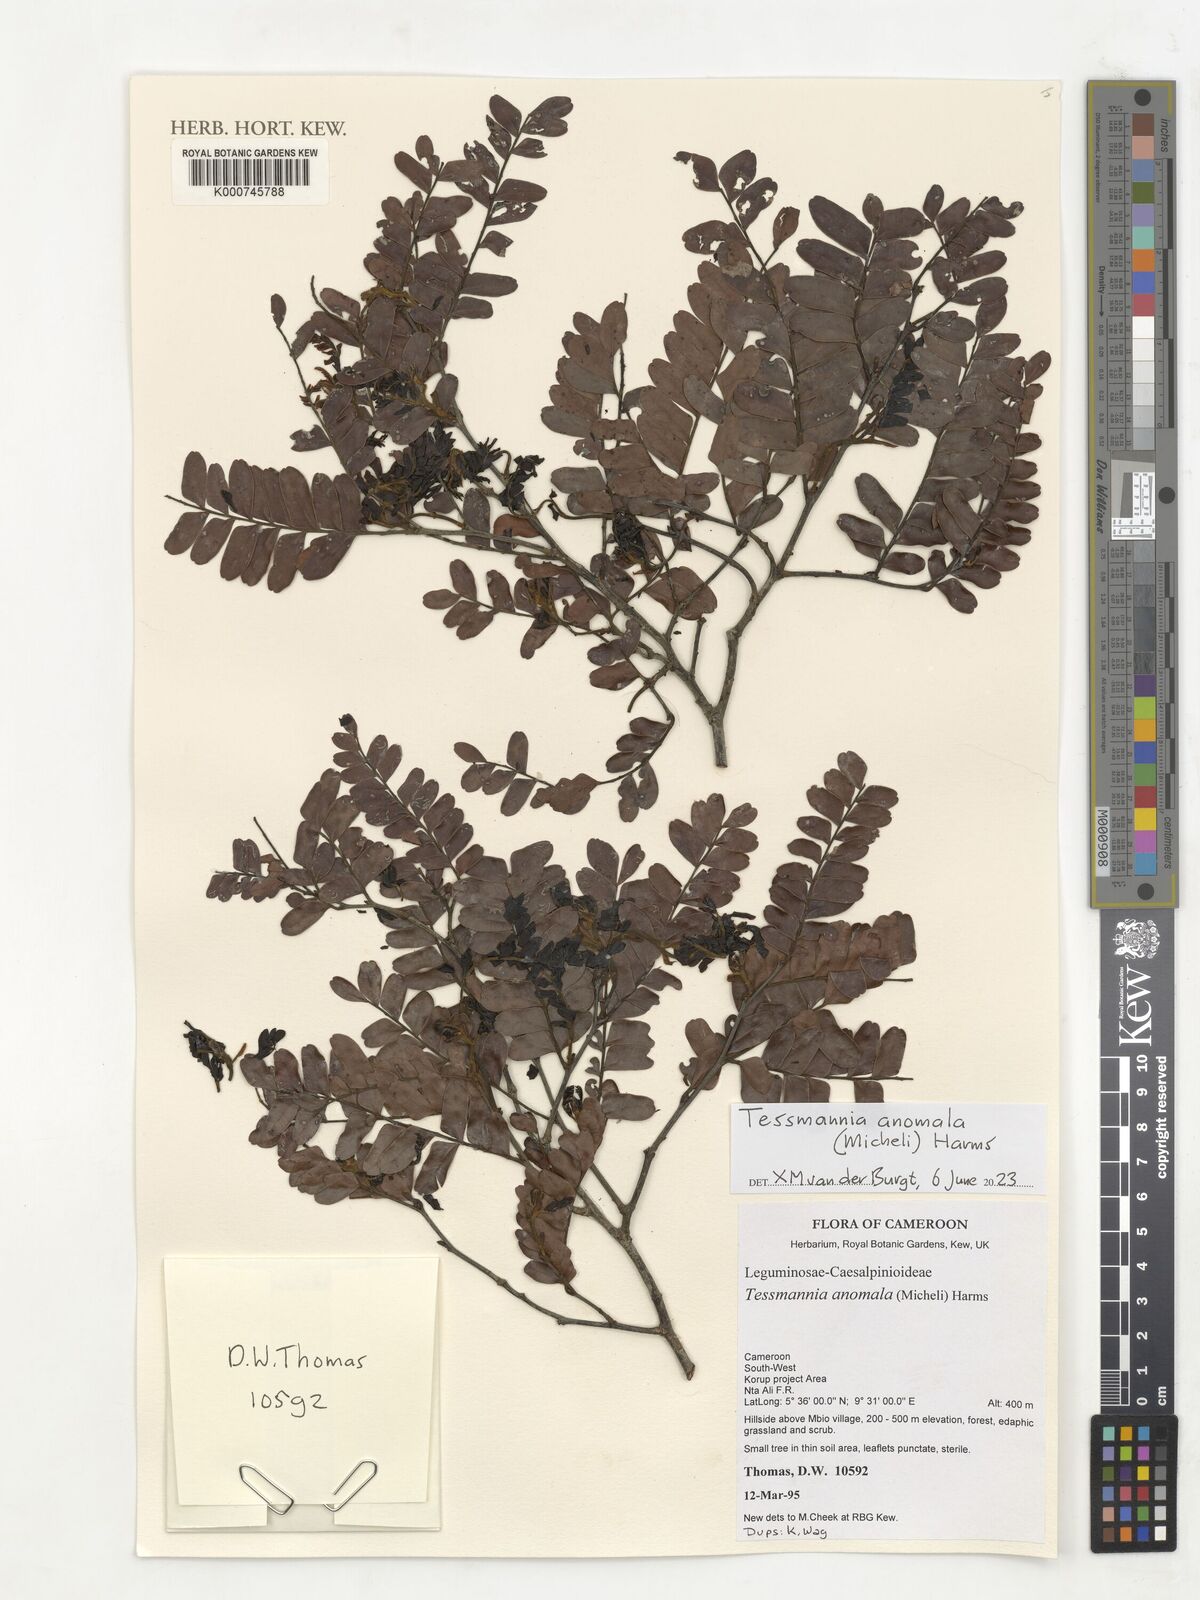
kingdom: Plantae
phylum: Tracheophyta
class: Magnoliopsida
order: Fabales
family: Fabaceae
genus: Tessmannia
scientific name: Tessmannia anomala
